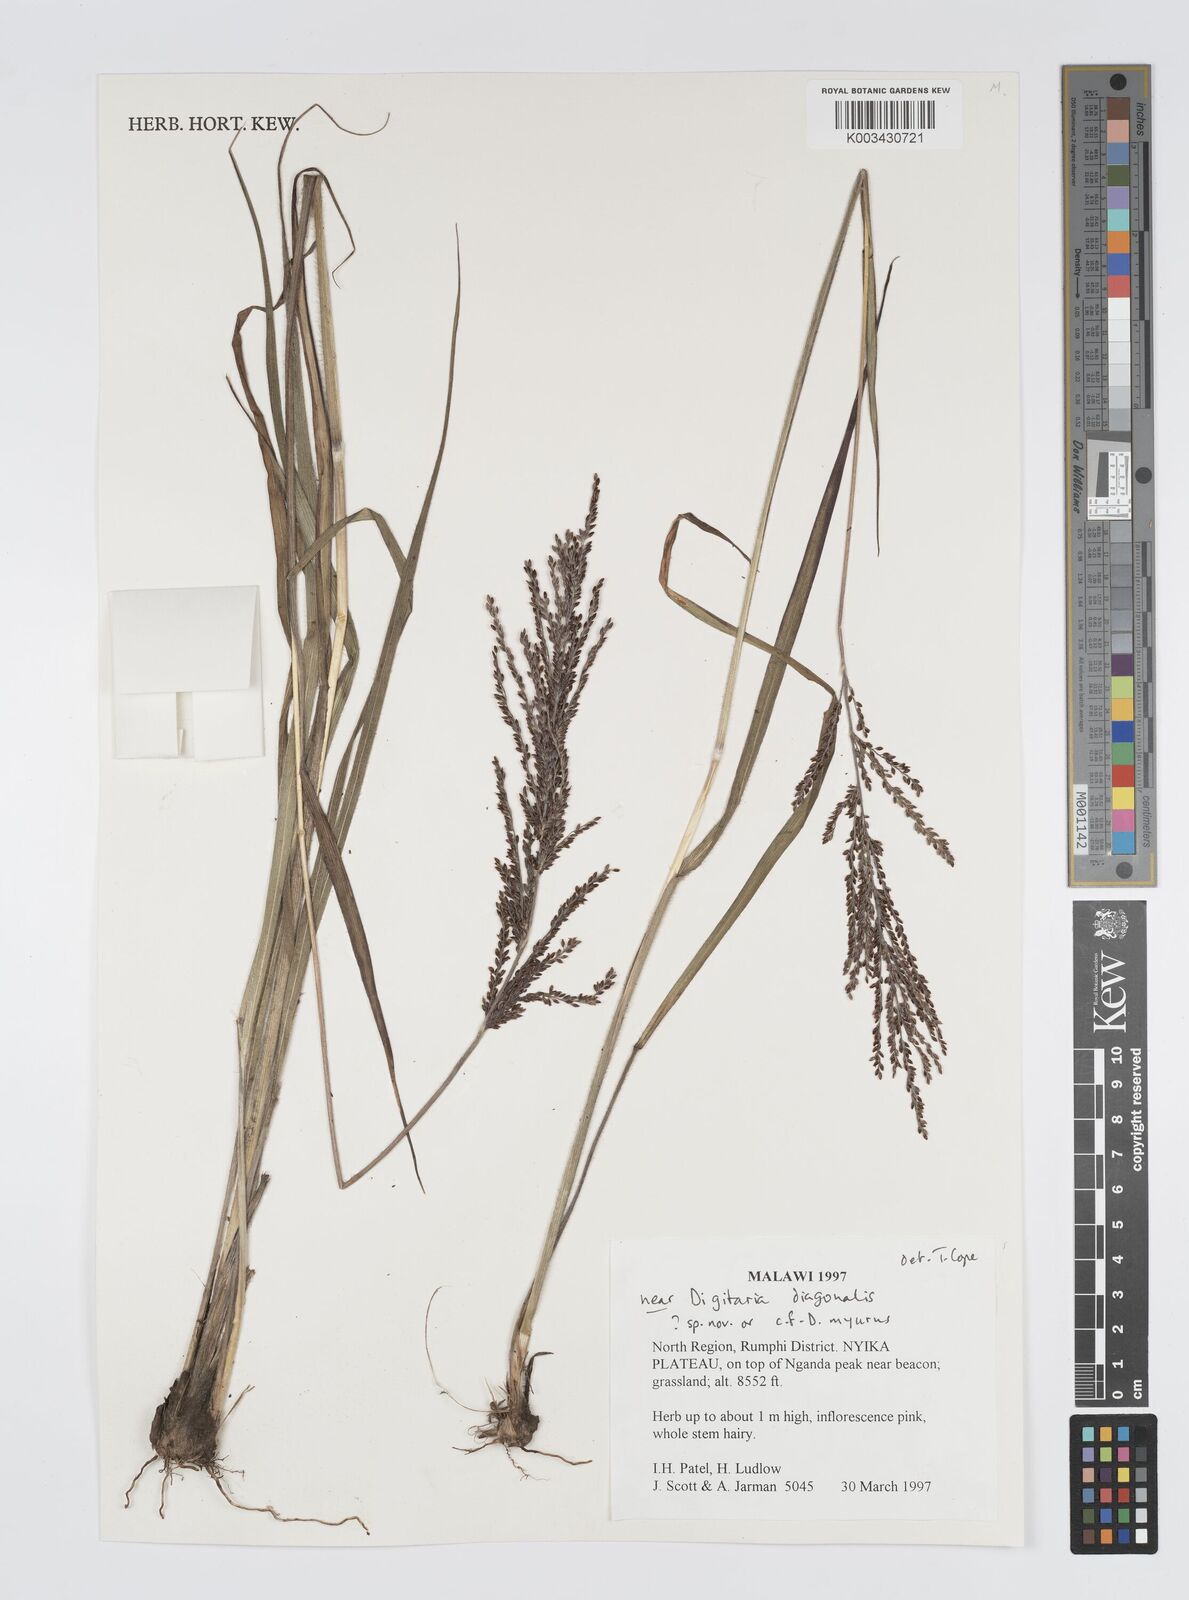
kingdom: Plantae
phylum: Tracheophyta
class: Liliopsida
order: Poales
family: Poaceae
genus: Digitaria
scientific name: Digitaria diagonalis
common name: Brown-seed finger grass
